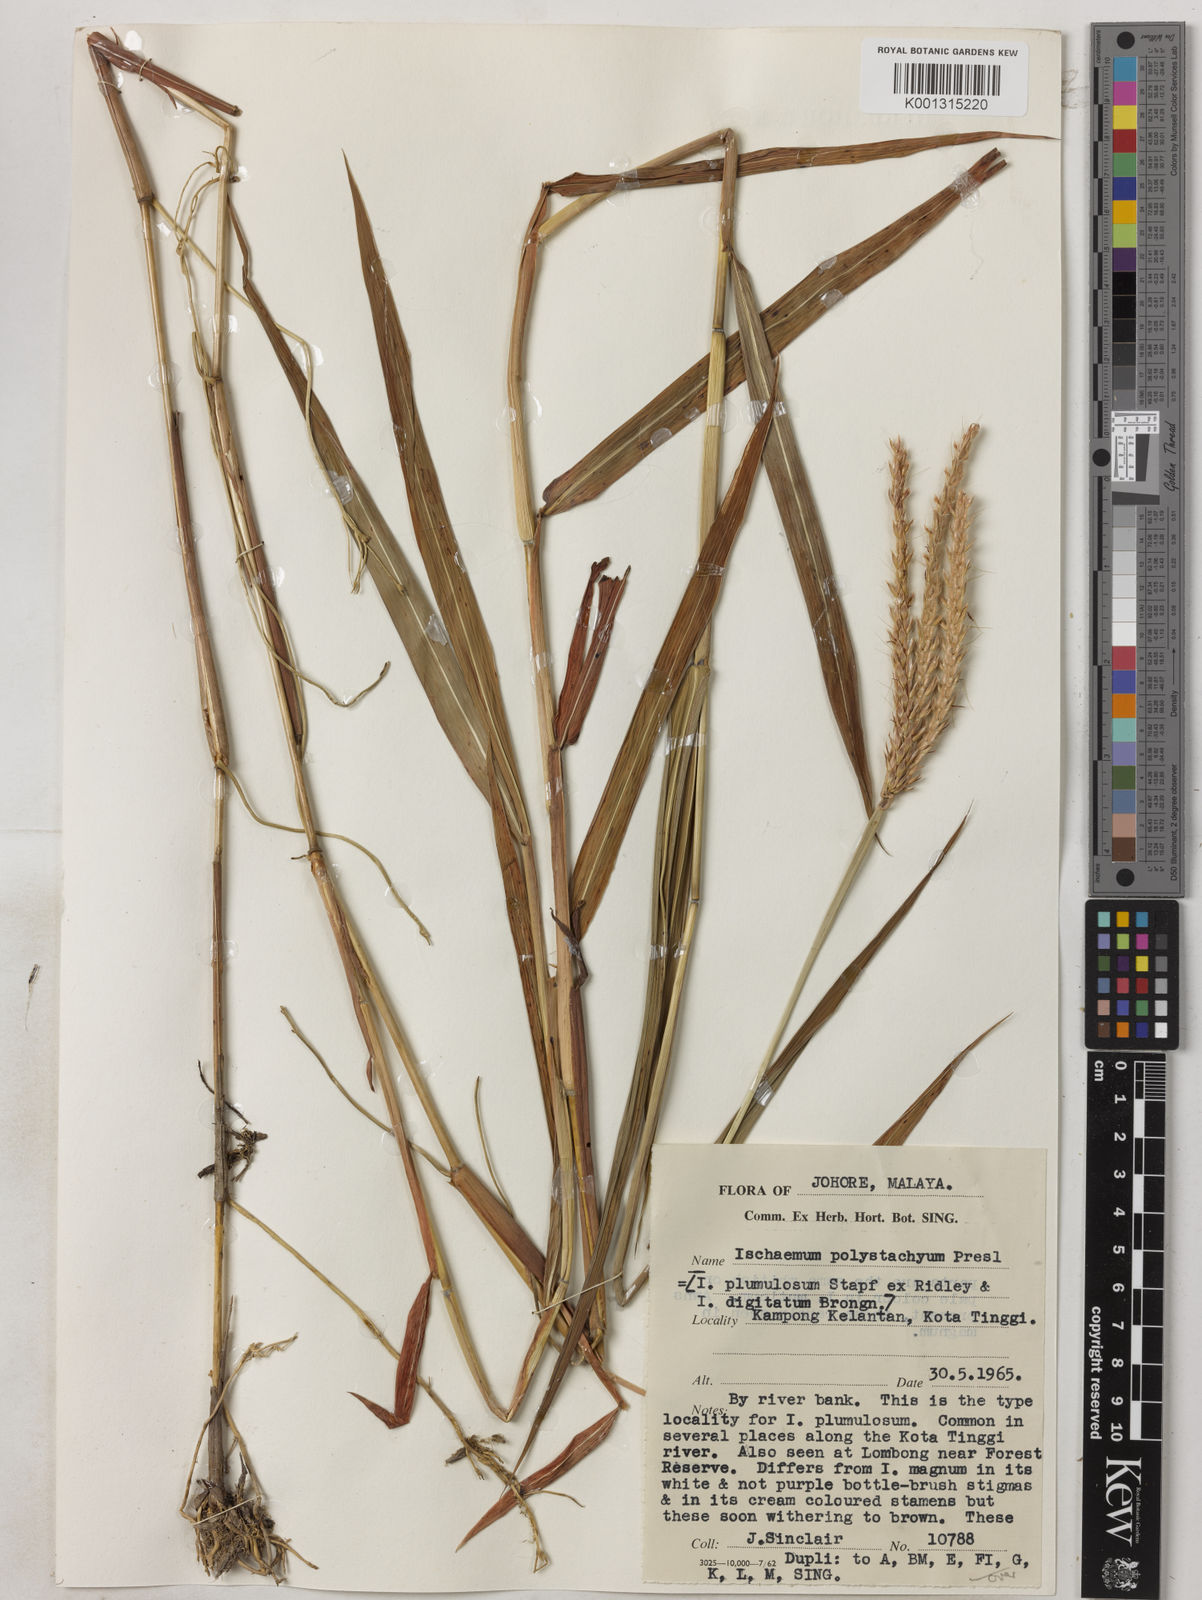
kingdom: Plantae
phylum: Tracheophyta
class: Liliopsida
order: Poales
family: Poaceae
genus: Ischaemum
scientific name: Ischaemum polystachyum
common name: Paddle grass
